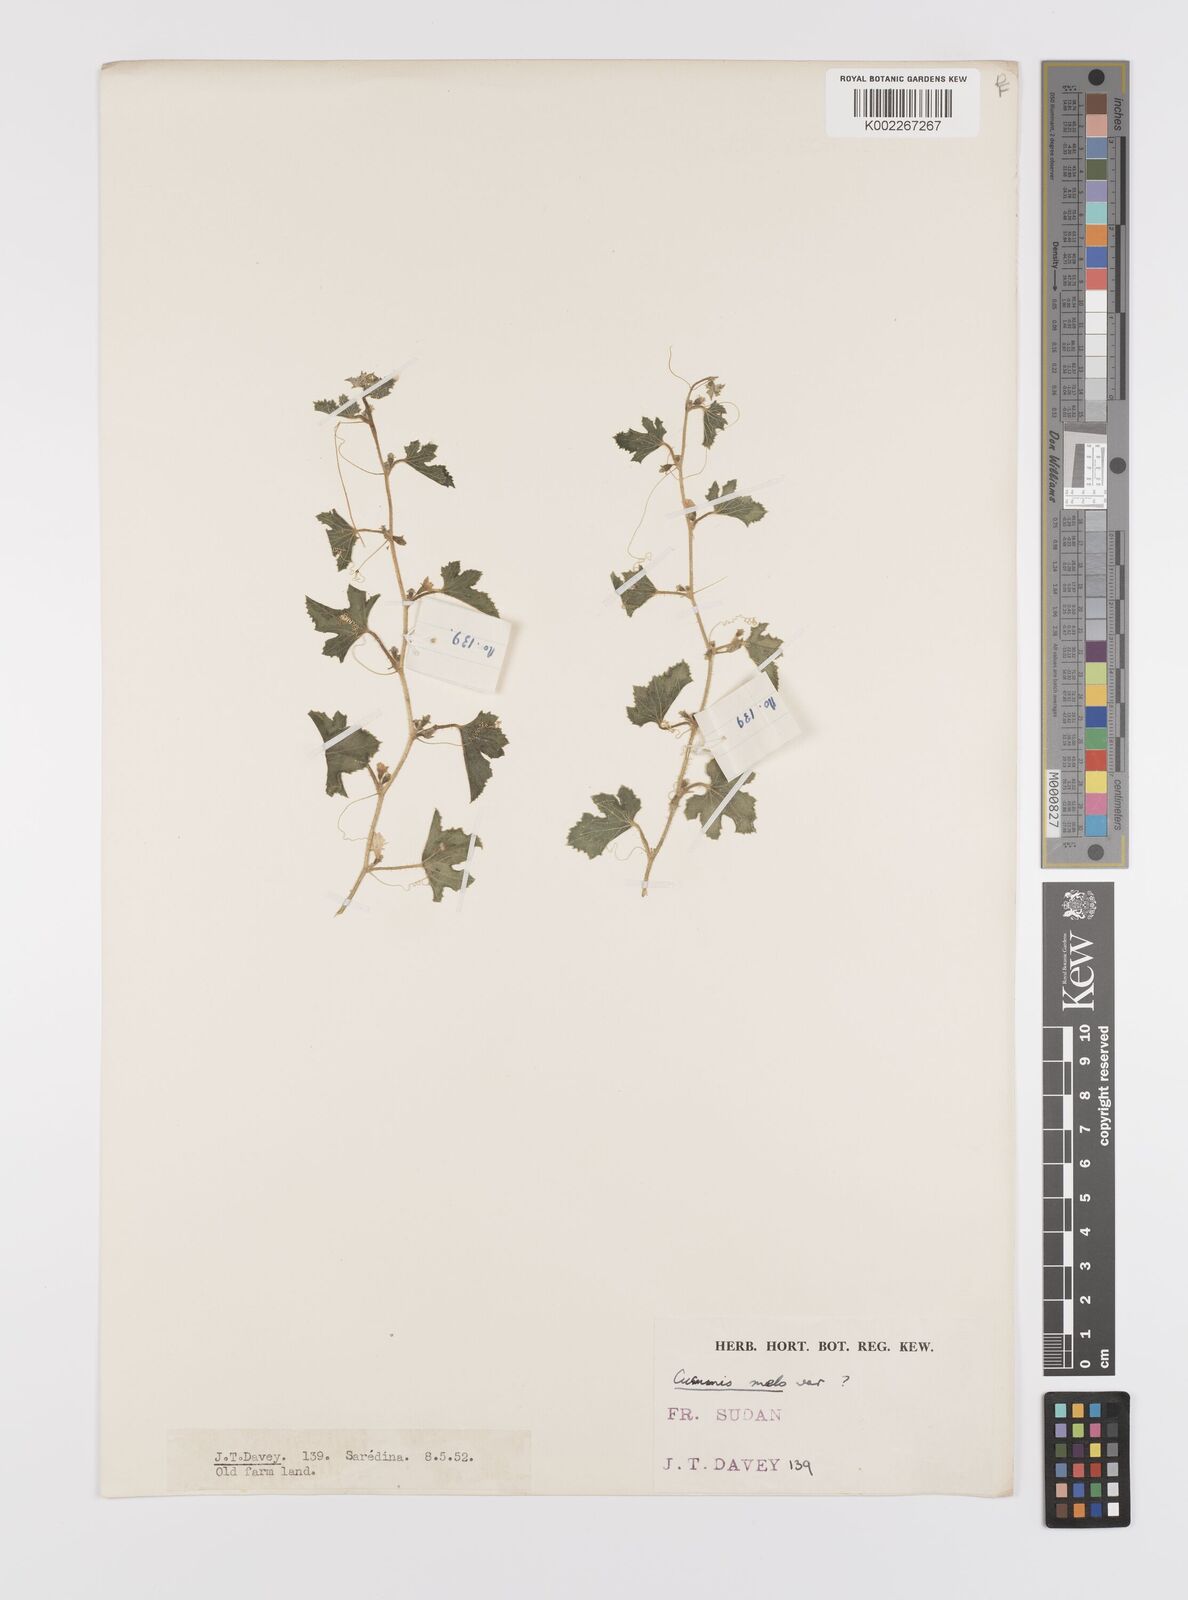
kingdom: Plantae
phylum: Tracheophyta
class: Magnoliopsida
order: Cucurbitales
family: Cucurbitaceae
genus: Cucumis
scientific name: Cucumis melo
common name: Melon
